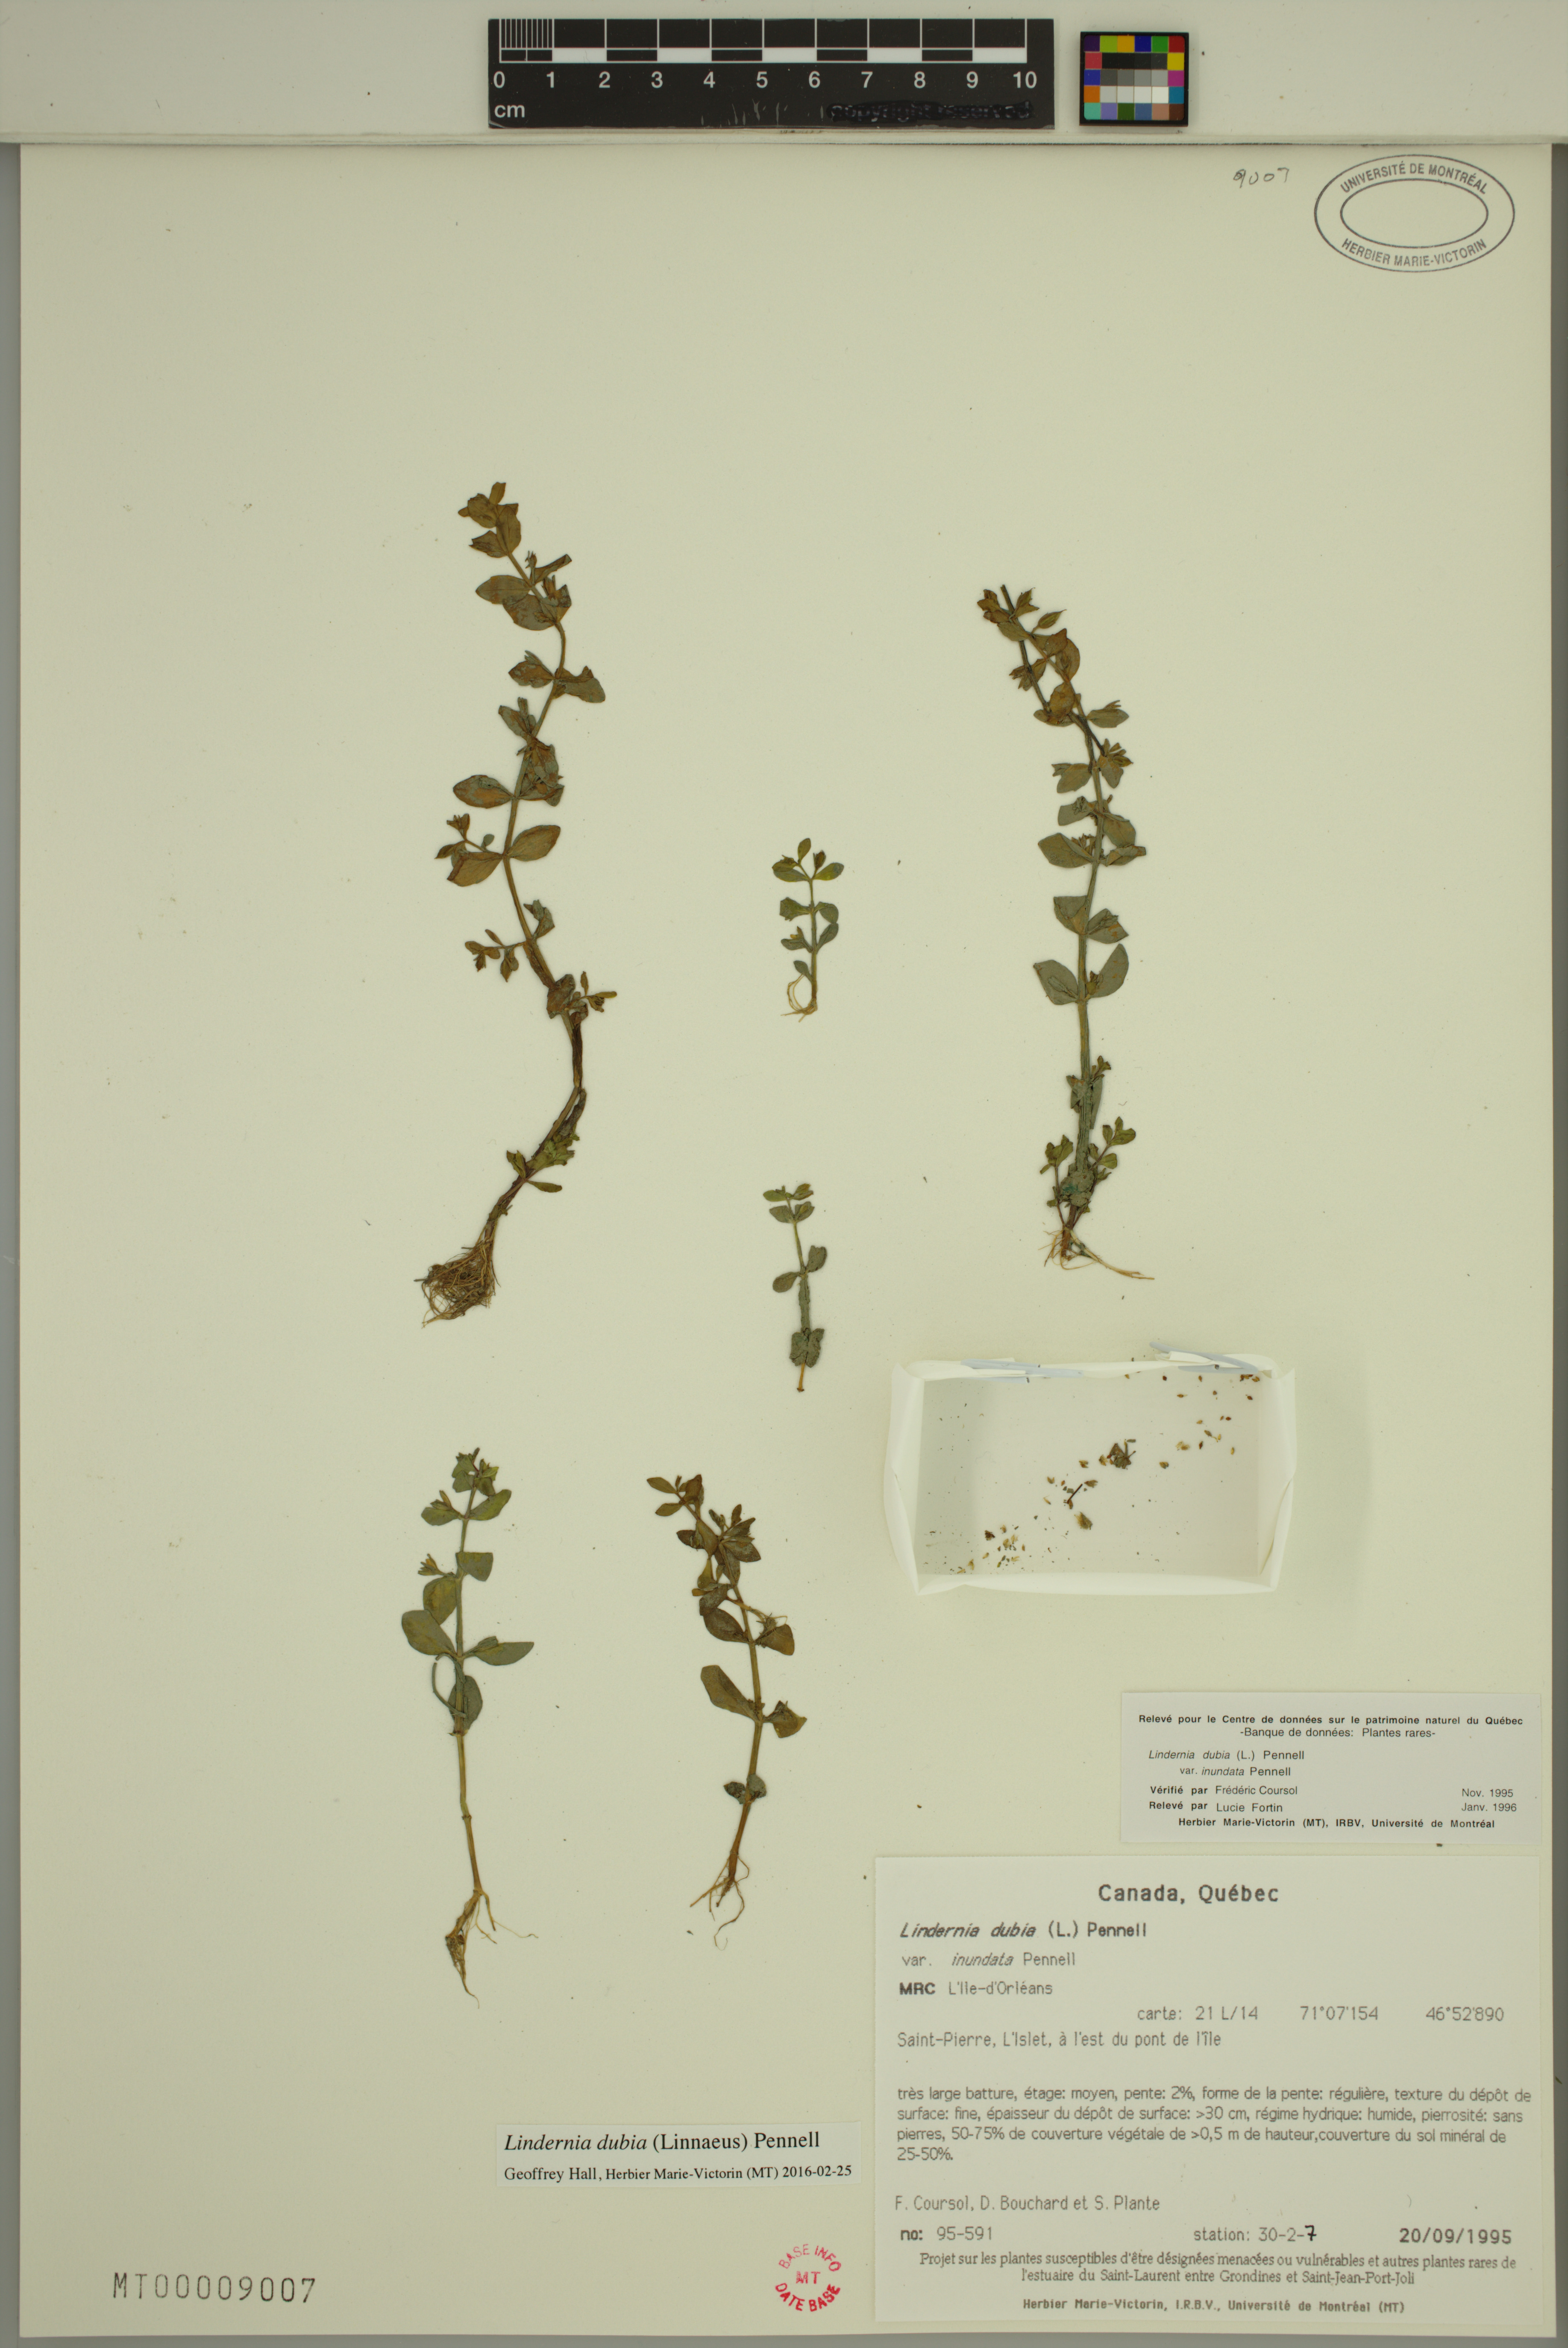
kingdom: Plantae
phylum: Tracheophyta
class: Magnoliopsida
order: Lamiales
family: Linderniaceae
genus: Lindernia
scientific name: Lindernia dubia
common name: Annual false pimpernel
